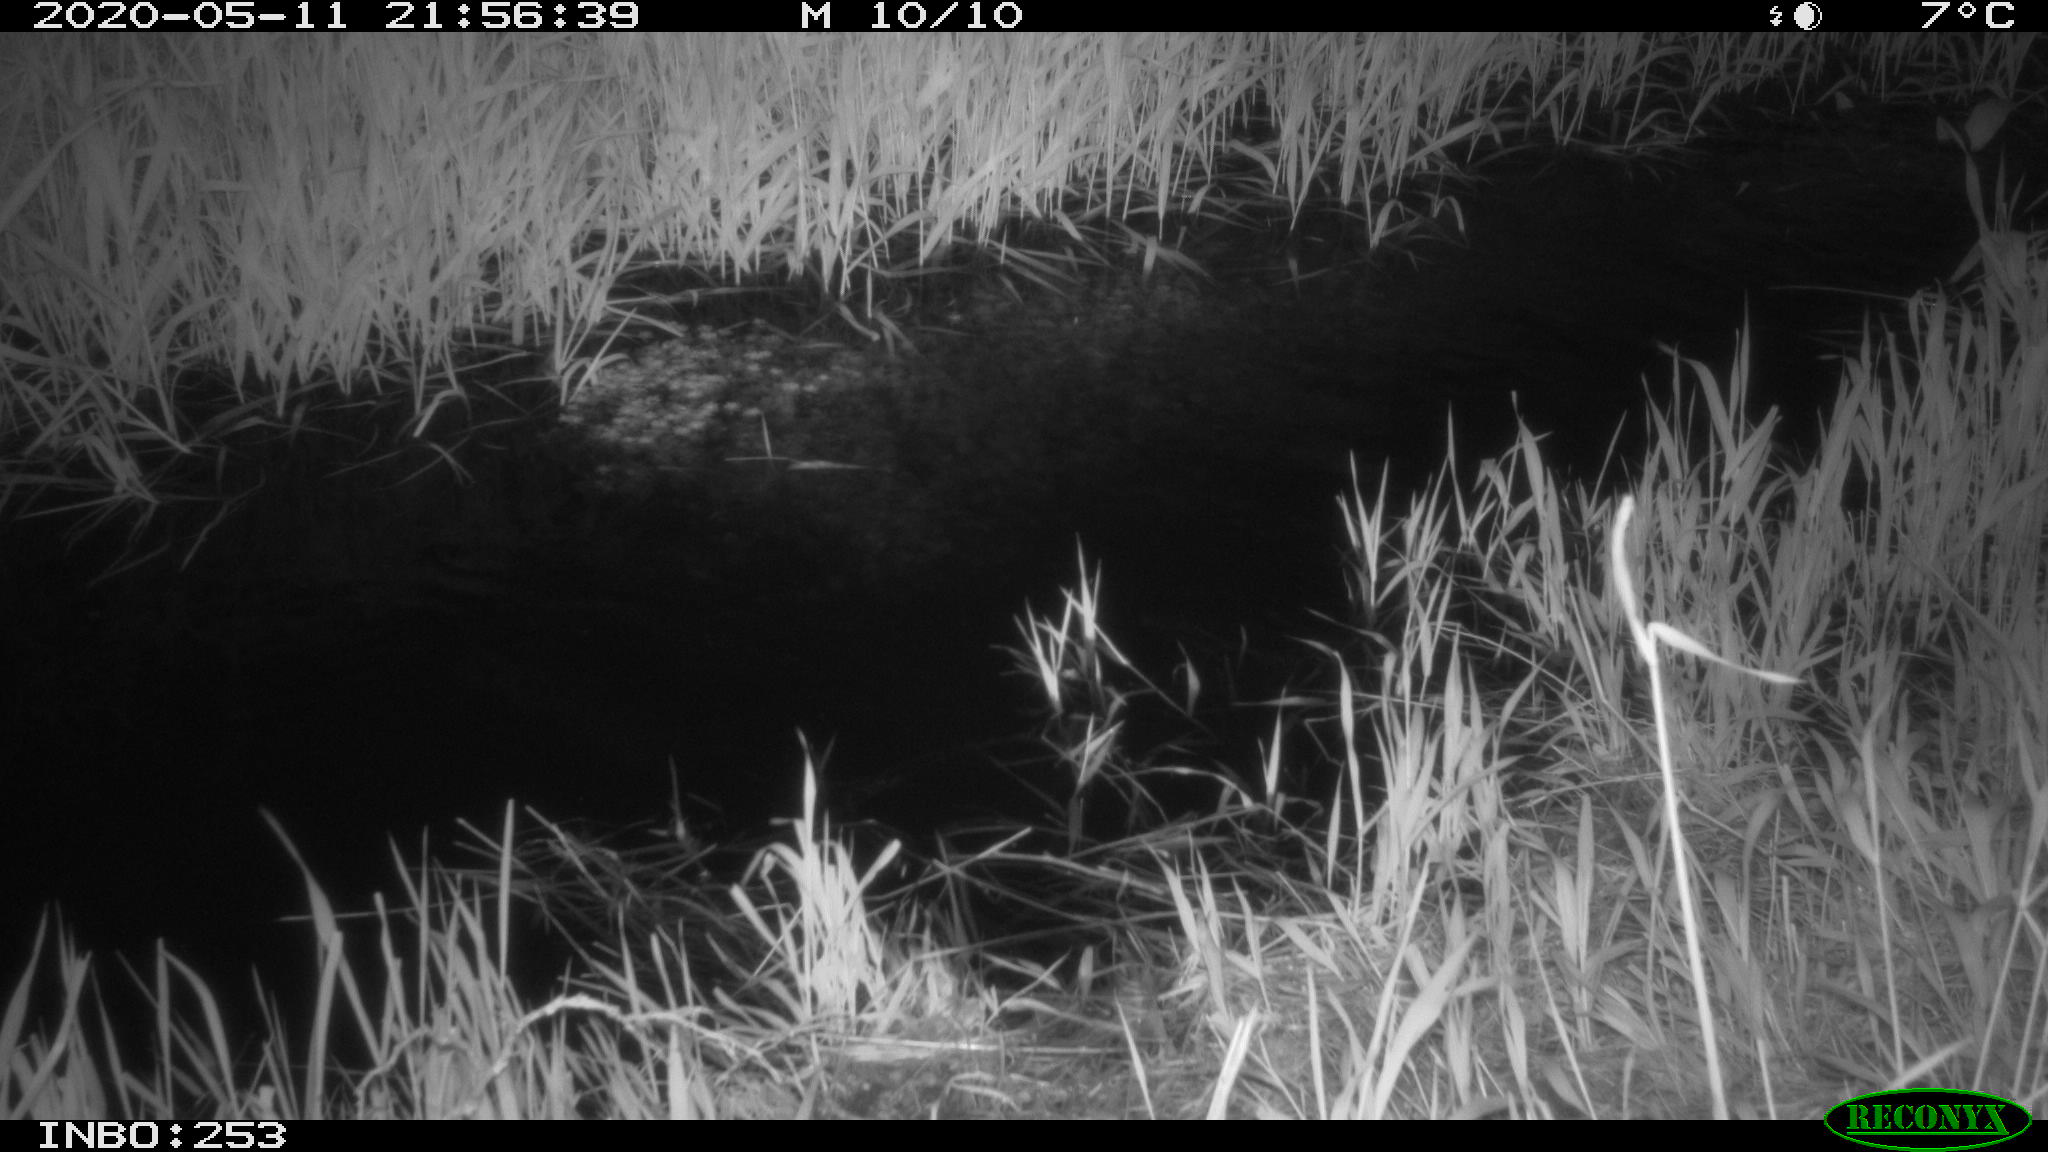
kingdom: Animalia
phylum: Chordata
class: Aves
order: Anseriformes
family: Anatidae
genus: Anas
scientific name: Anas platyrhynchos
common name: Mallard
